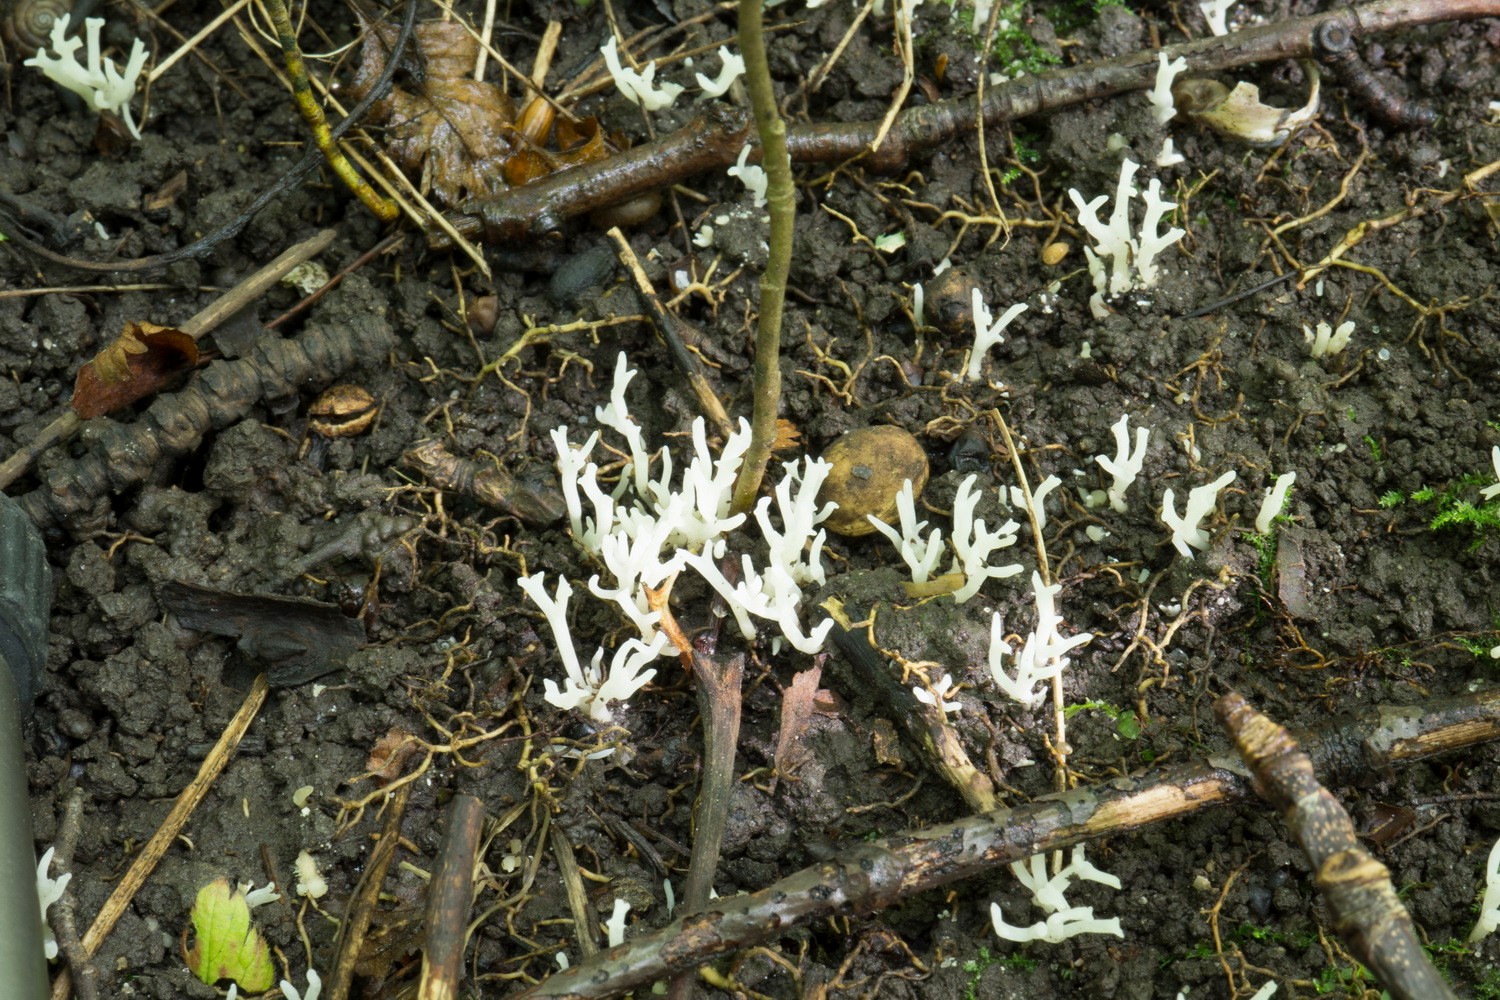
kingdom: Fungi
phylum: Basidiomycota
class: Agaricomycetes
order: Agaricales
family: Clavariaceae
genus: Ramariopsis
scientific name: Ramariopsis
